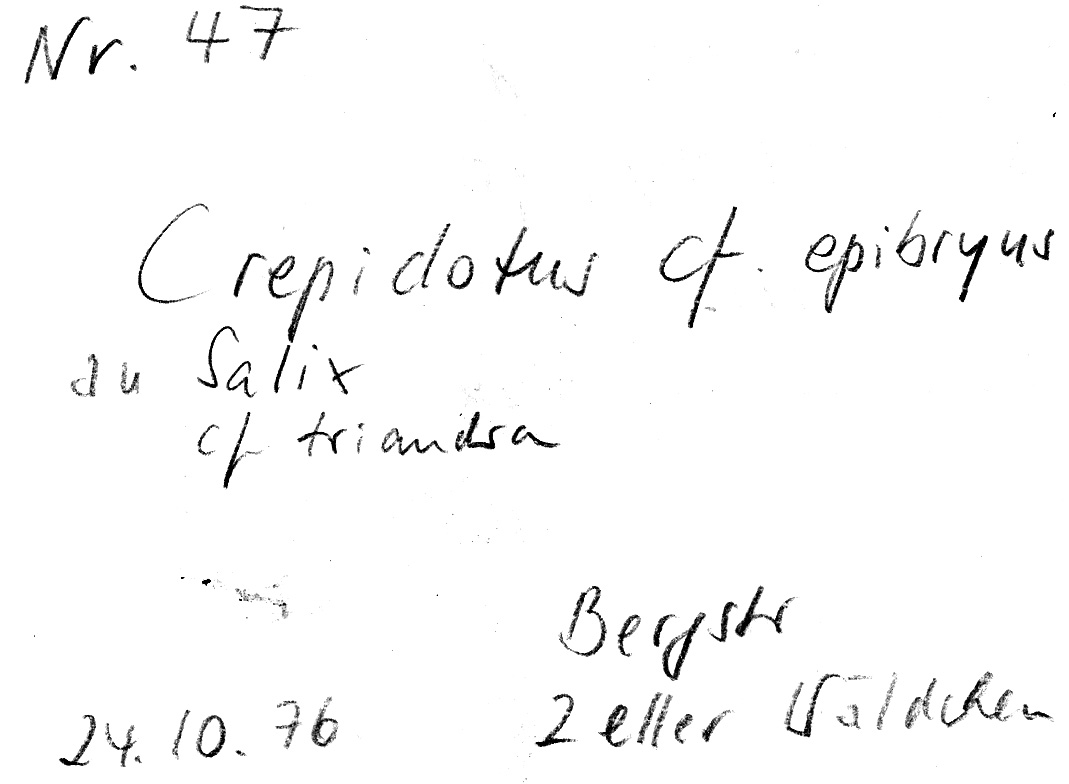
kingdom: Fungi
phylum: Basidiomycota
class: Agaricomycetes
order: Agaricales
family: Crepidotaceae
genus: Crepidotus
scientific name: Crepidotus epibryus
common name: Grass oysterling
